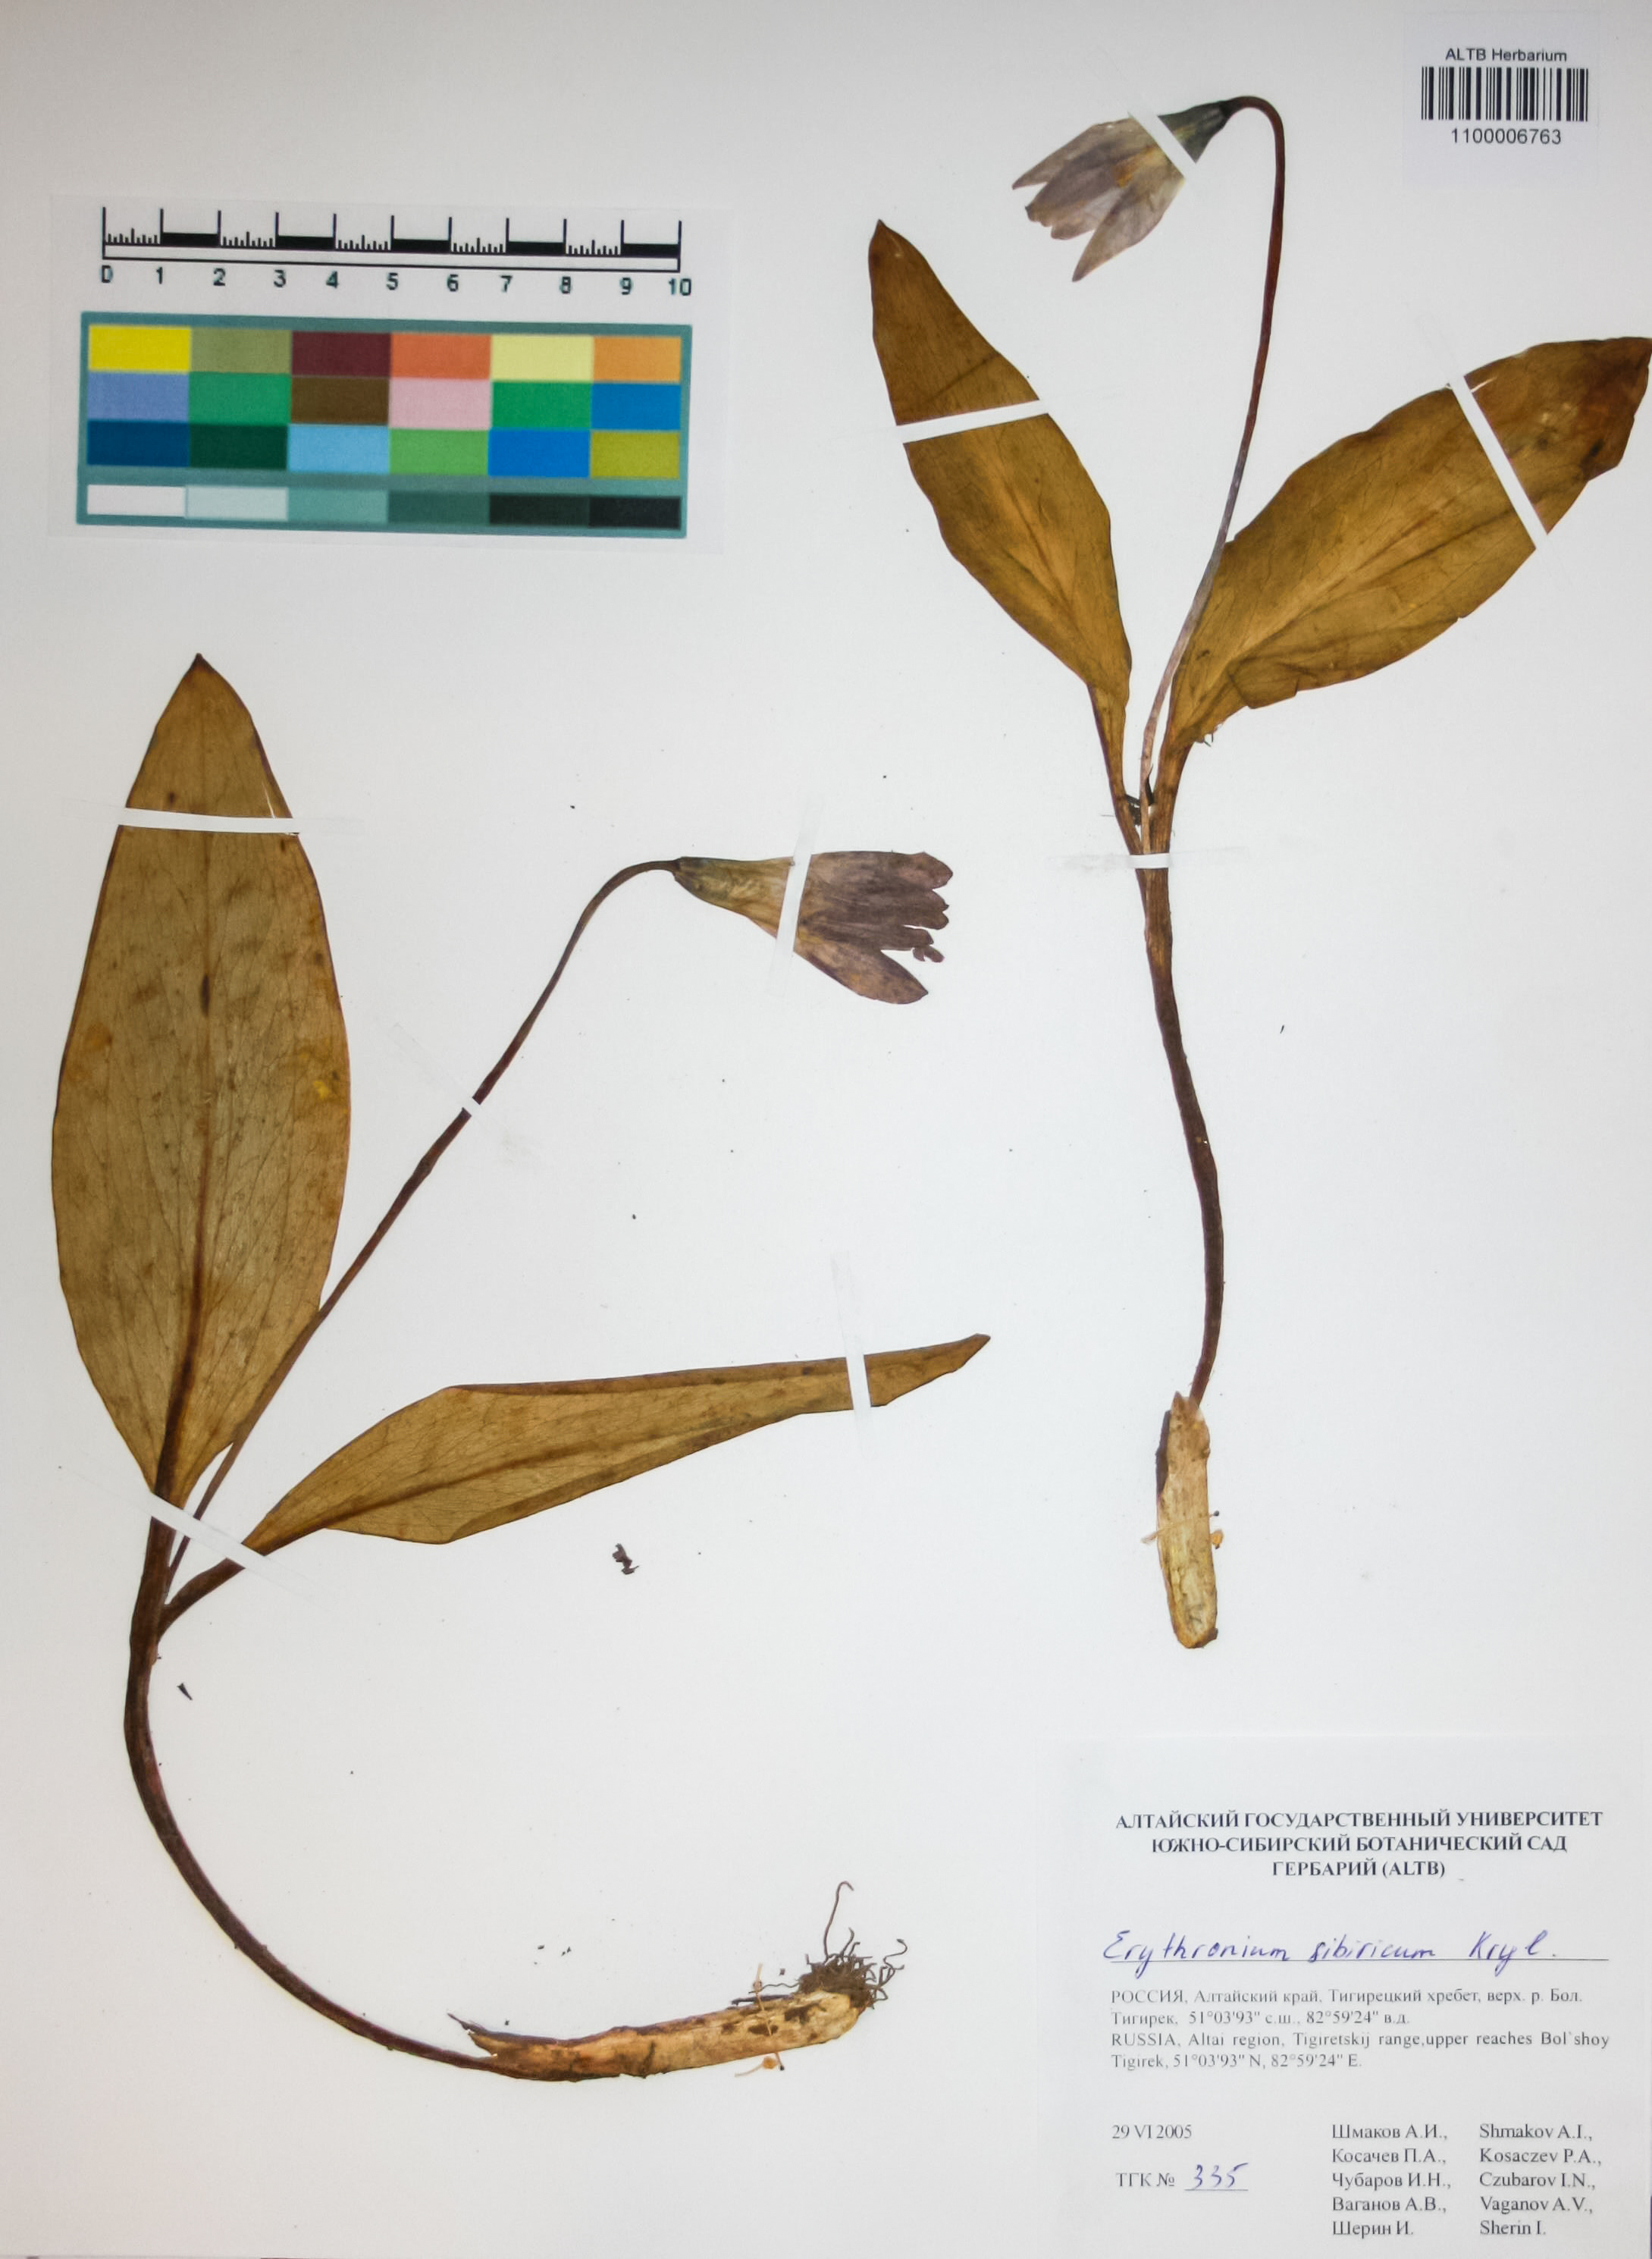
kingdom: Plantae
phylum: Tracheophyta
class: Liliopsida
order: Liliales
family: Liliaceae
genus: Erythronium
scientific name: Erythronium sibiricum
